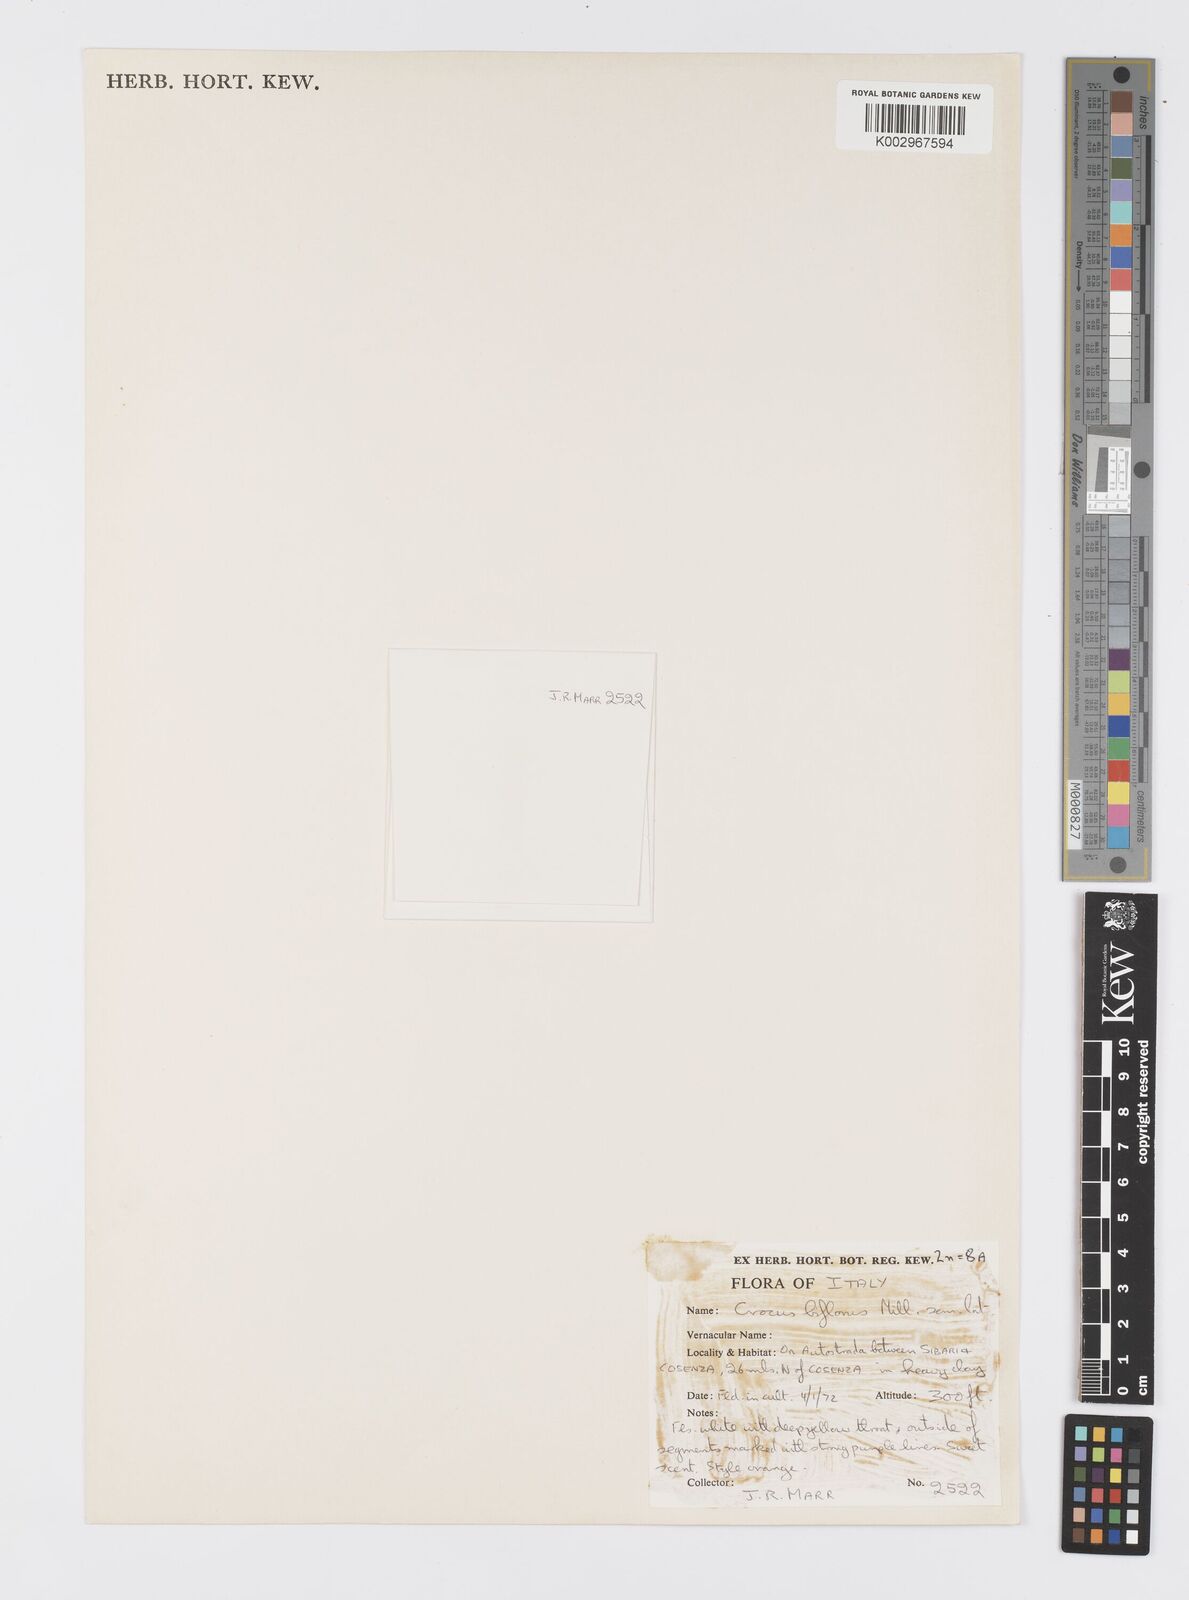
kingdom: Plantae
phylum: Tracheophyta
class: Liliopsida
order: Asparagales
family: Iridaceae
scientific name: Iridaceae
